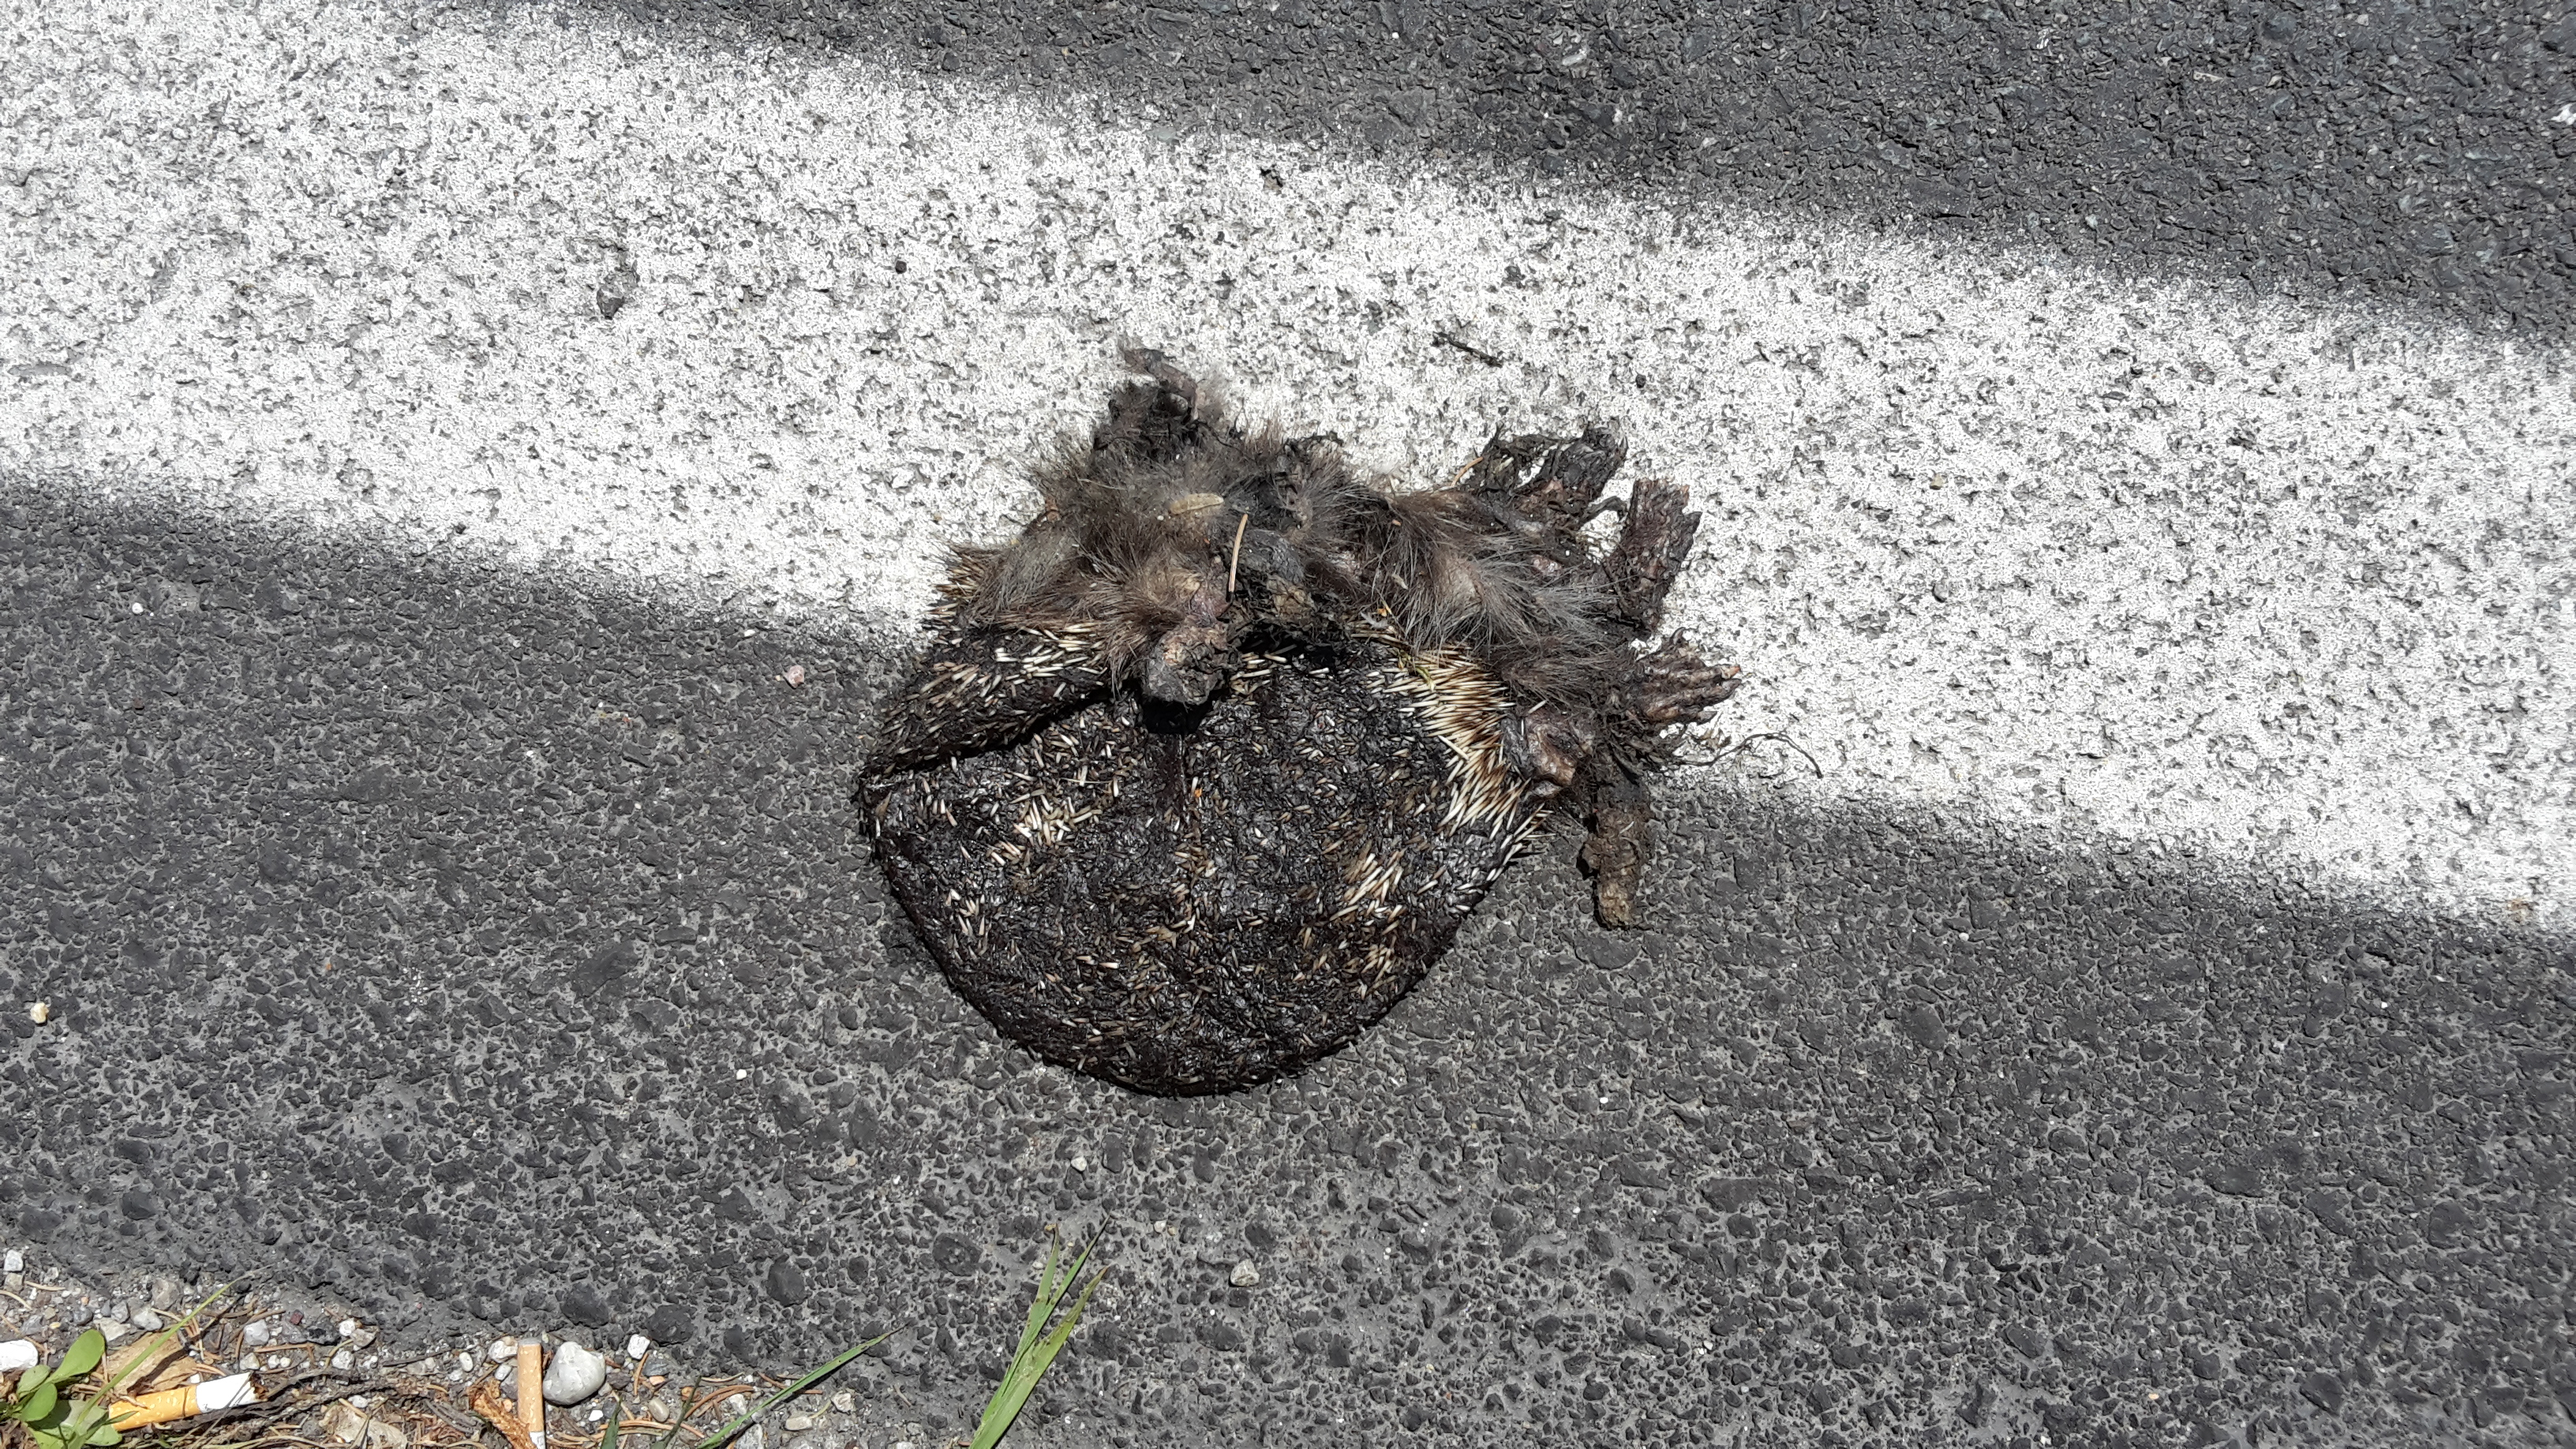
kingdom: Animalia
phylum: Chordata
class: Mammalia
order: Erinaceomorpha
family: Erinaceidae
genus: Erinaceus
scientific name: Erinaceus
